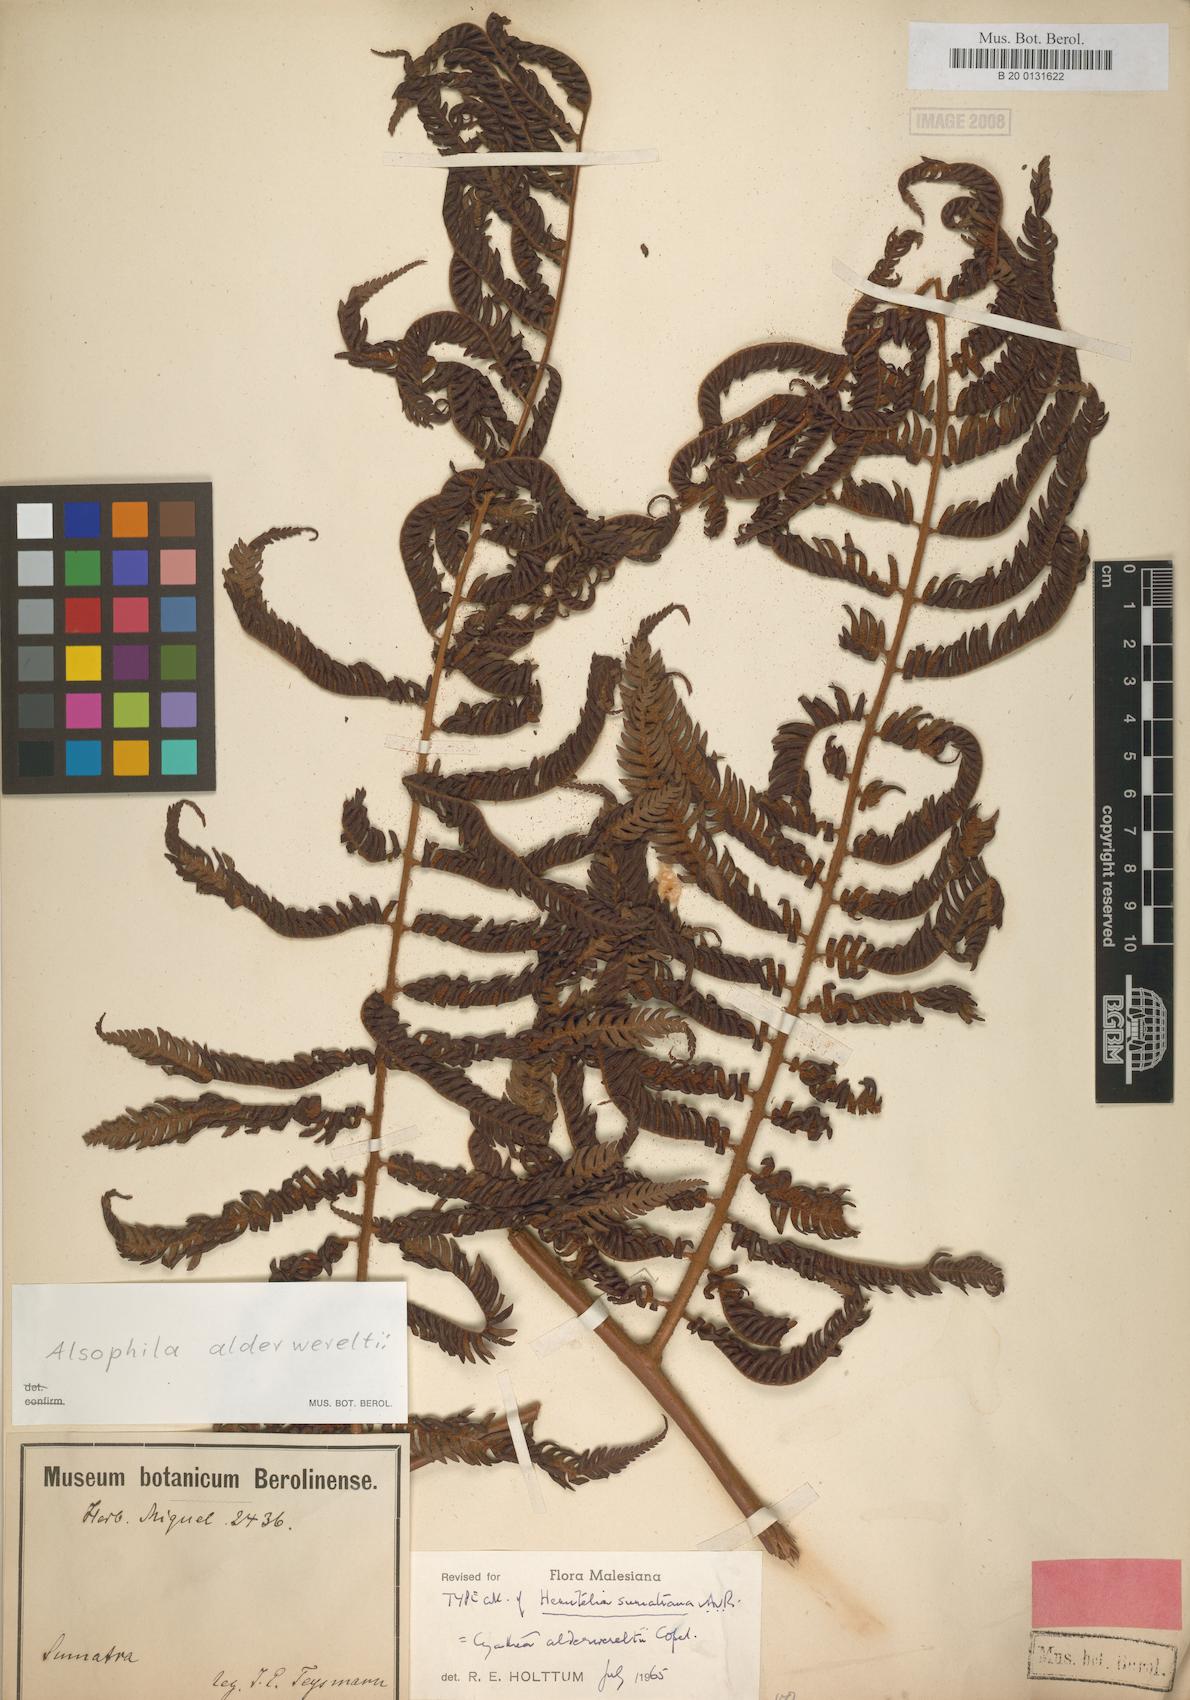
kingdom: Plantae
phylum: Tracheophyta
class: Polypodiopsida
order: Cyatheales
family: Cyatheaceae
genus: Alsophila
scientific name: Alsophila alderwereltii
